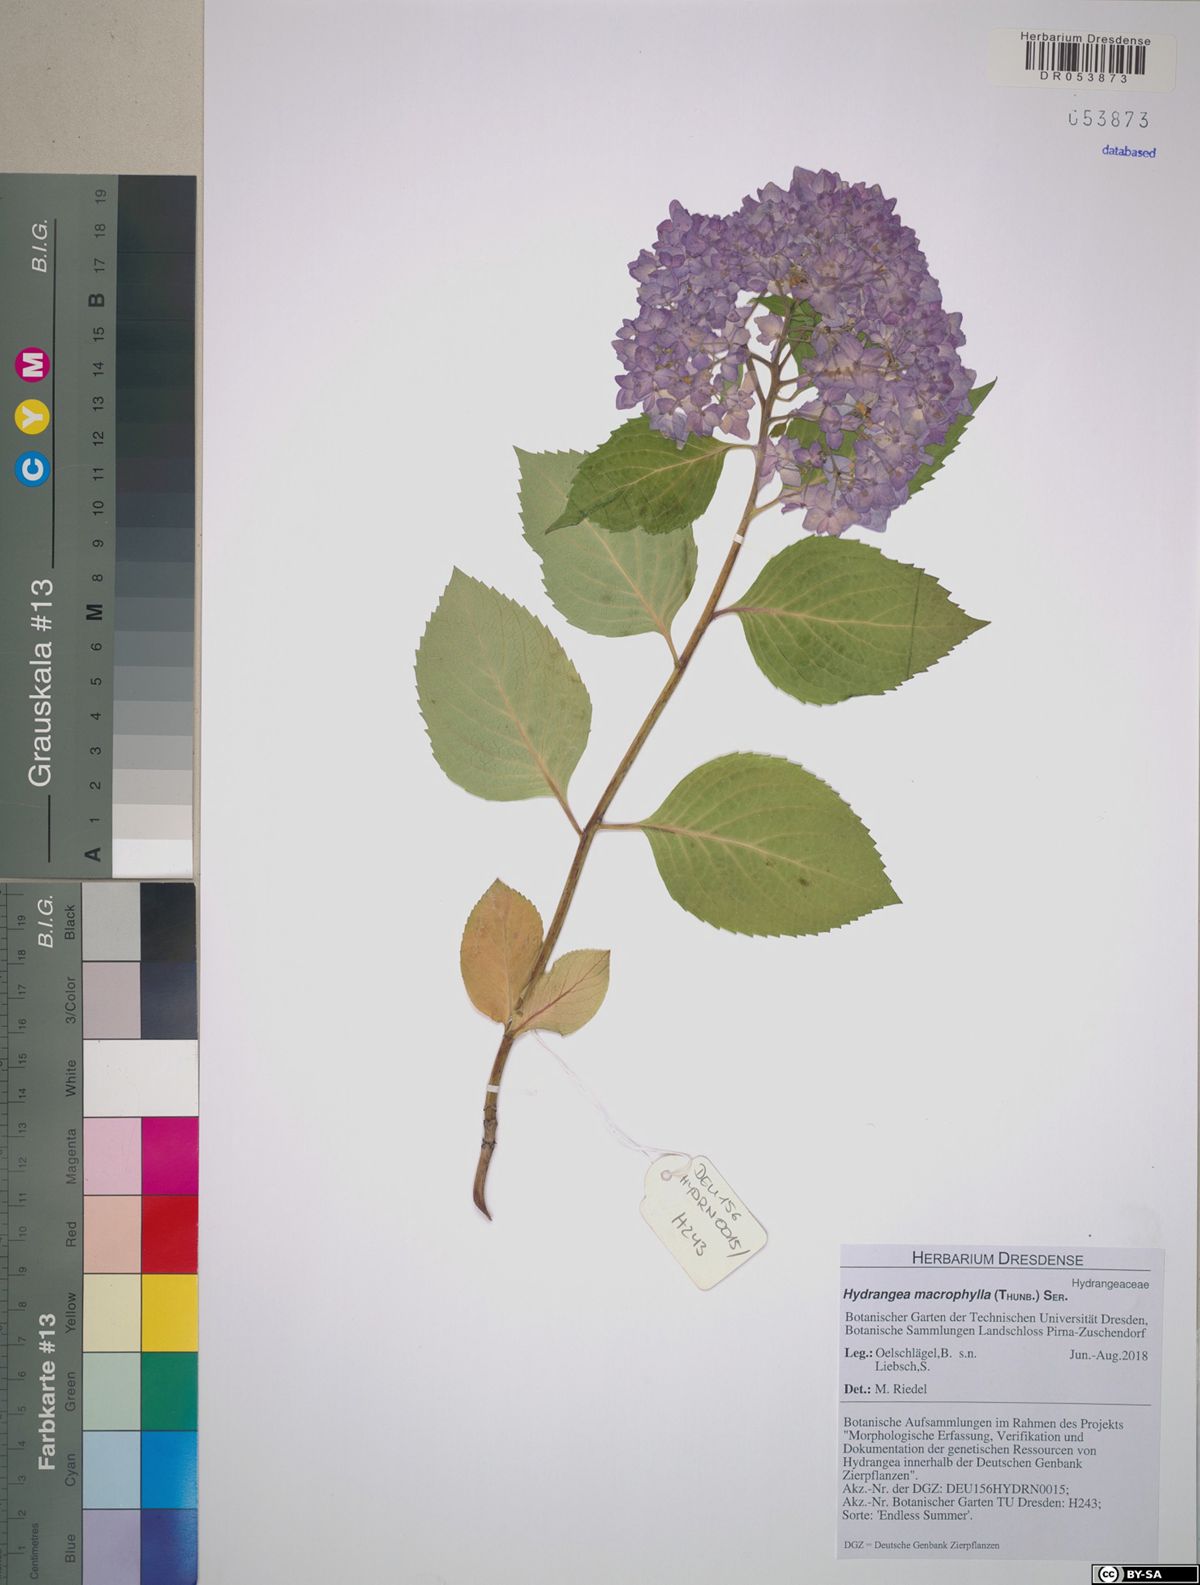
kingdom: Plantae
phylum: Tracheophyta
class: Magnoliopsida
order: Cornales
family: Hydrangeaceae
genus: Hydrangea
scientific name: Hydrangea macrophylla
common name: Hydrangea
